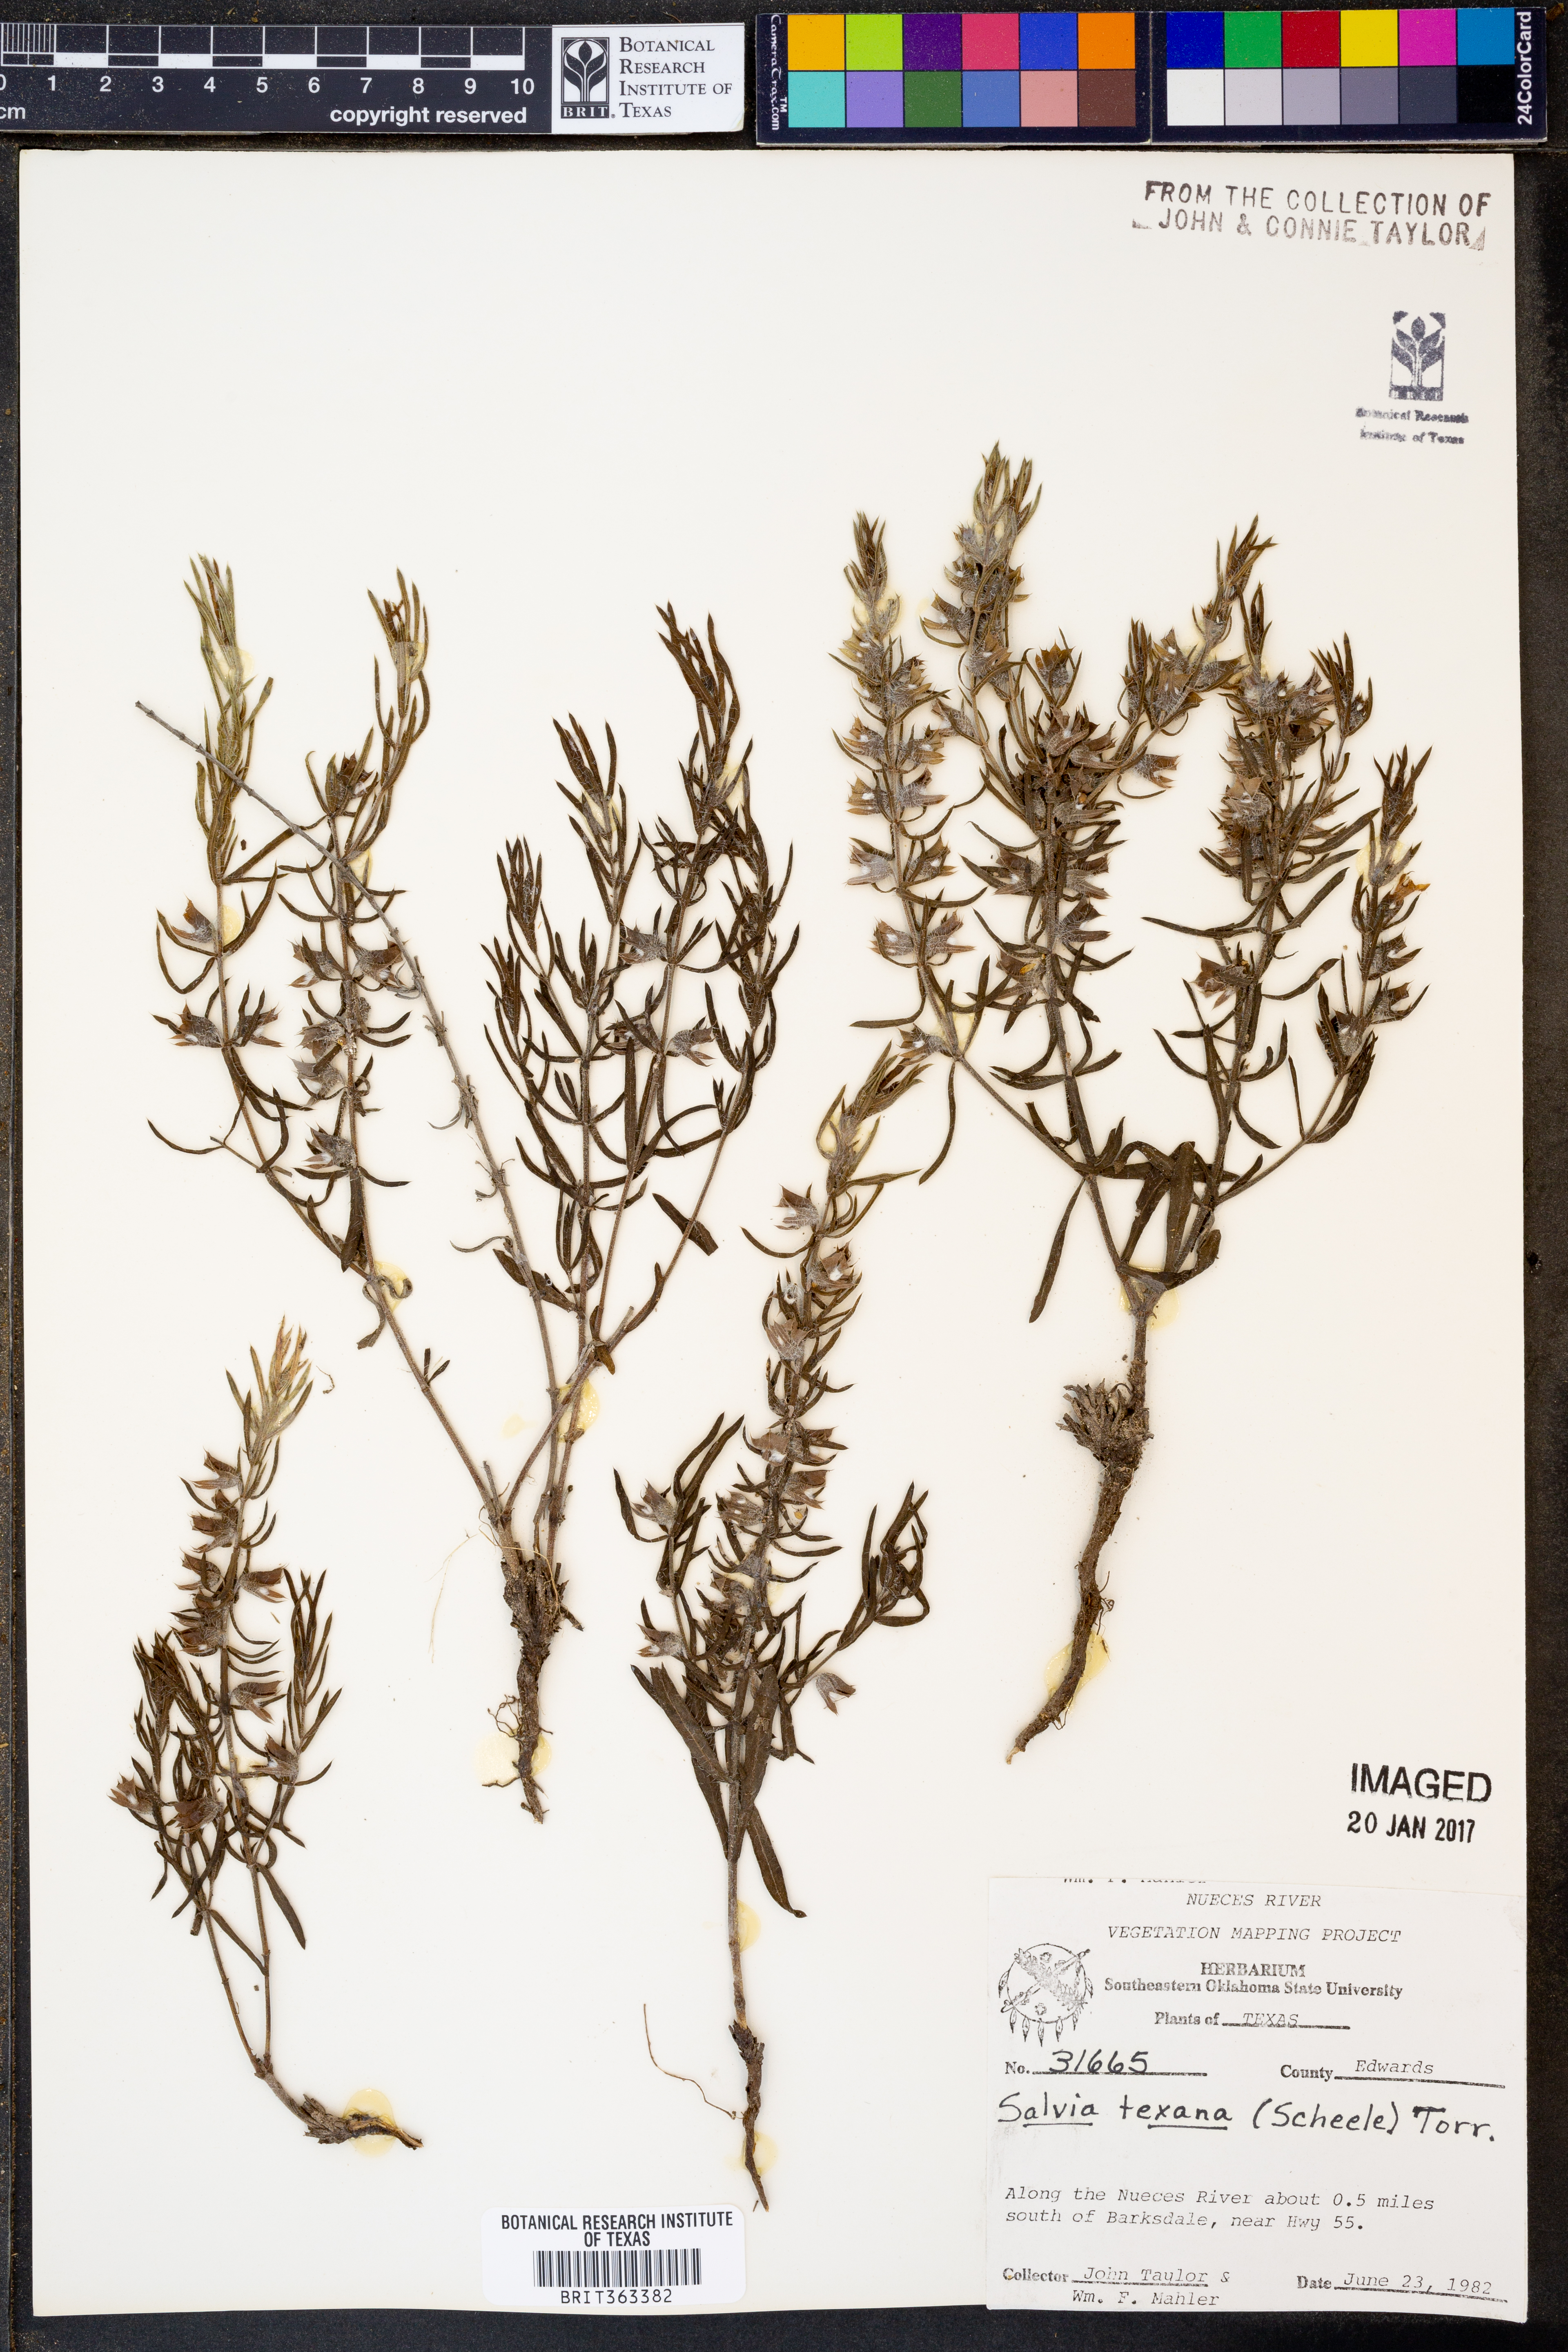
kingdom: Plantae
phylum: Tracheophyta
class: Magnoliopsida
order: Lamiales
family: Lamiaceae
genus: Salvia
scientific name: Salvia texana
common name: Texas sage
